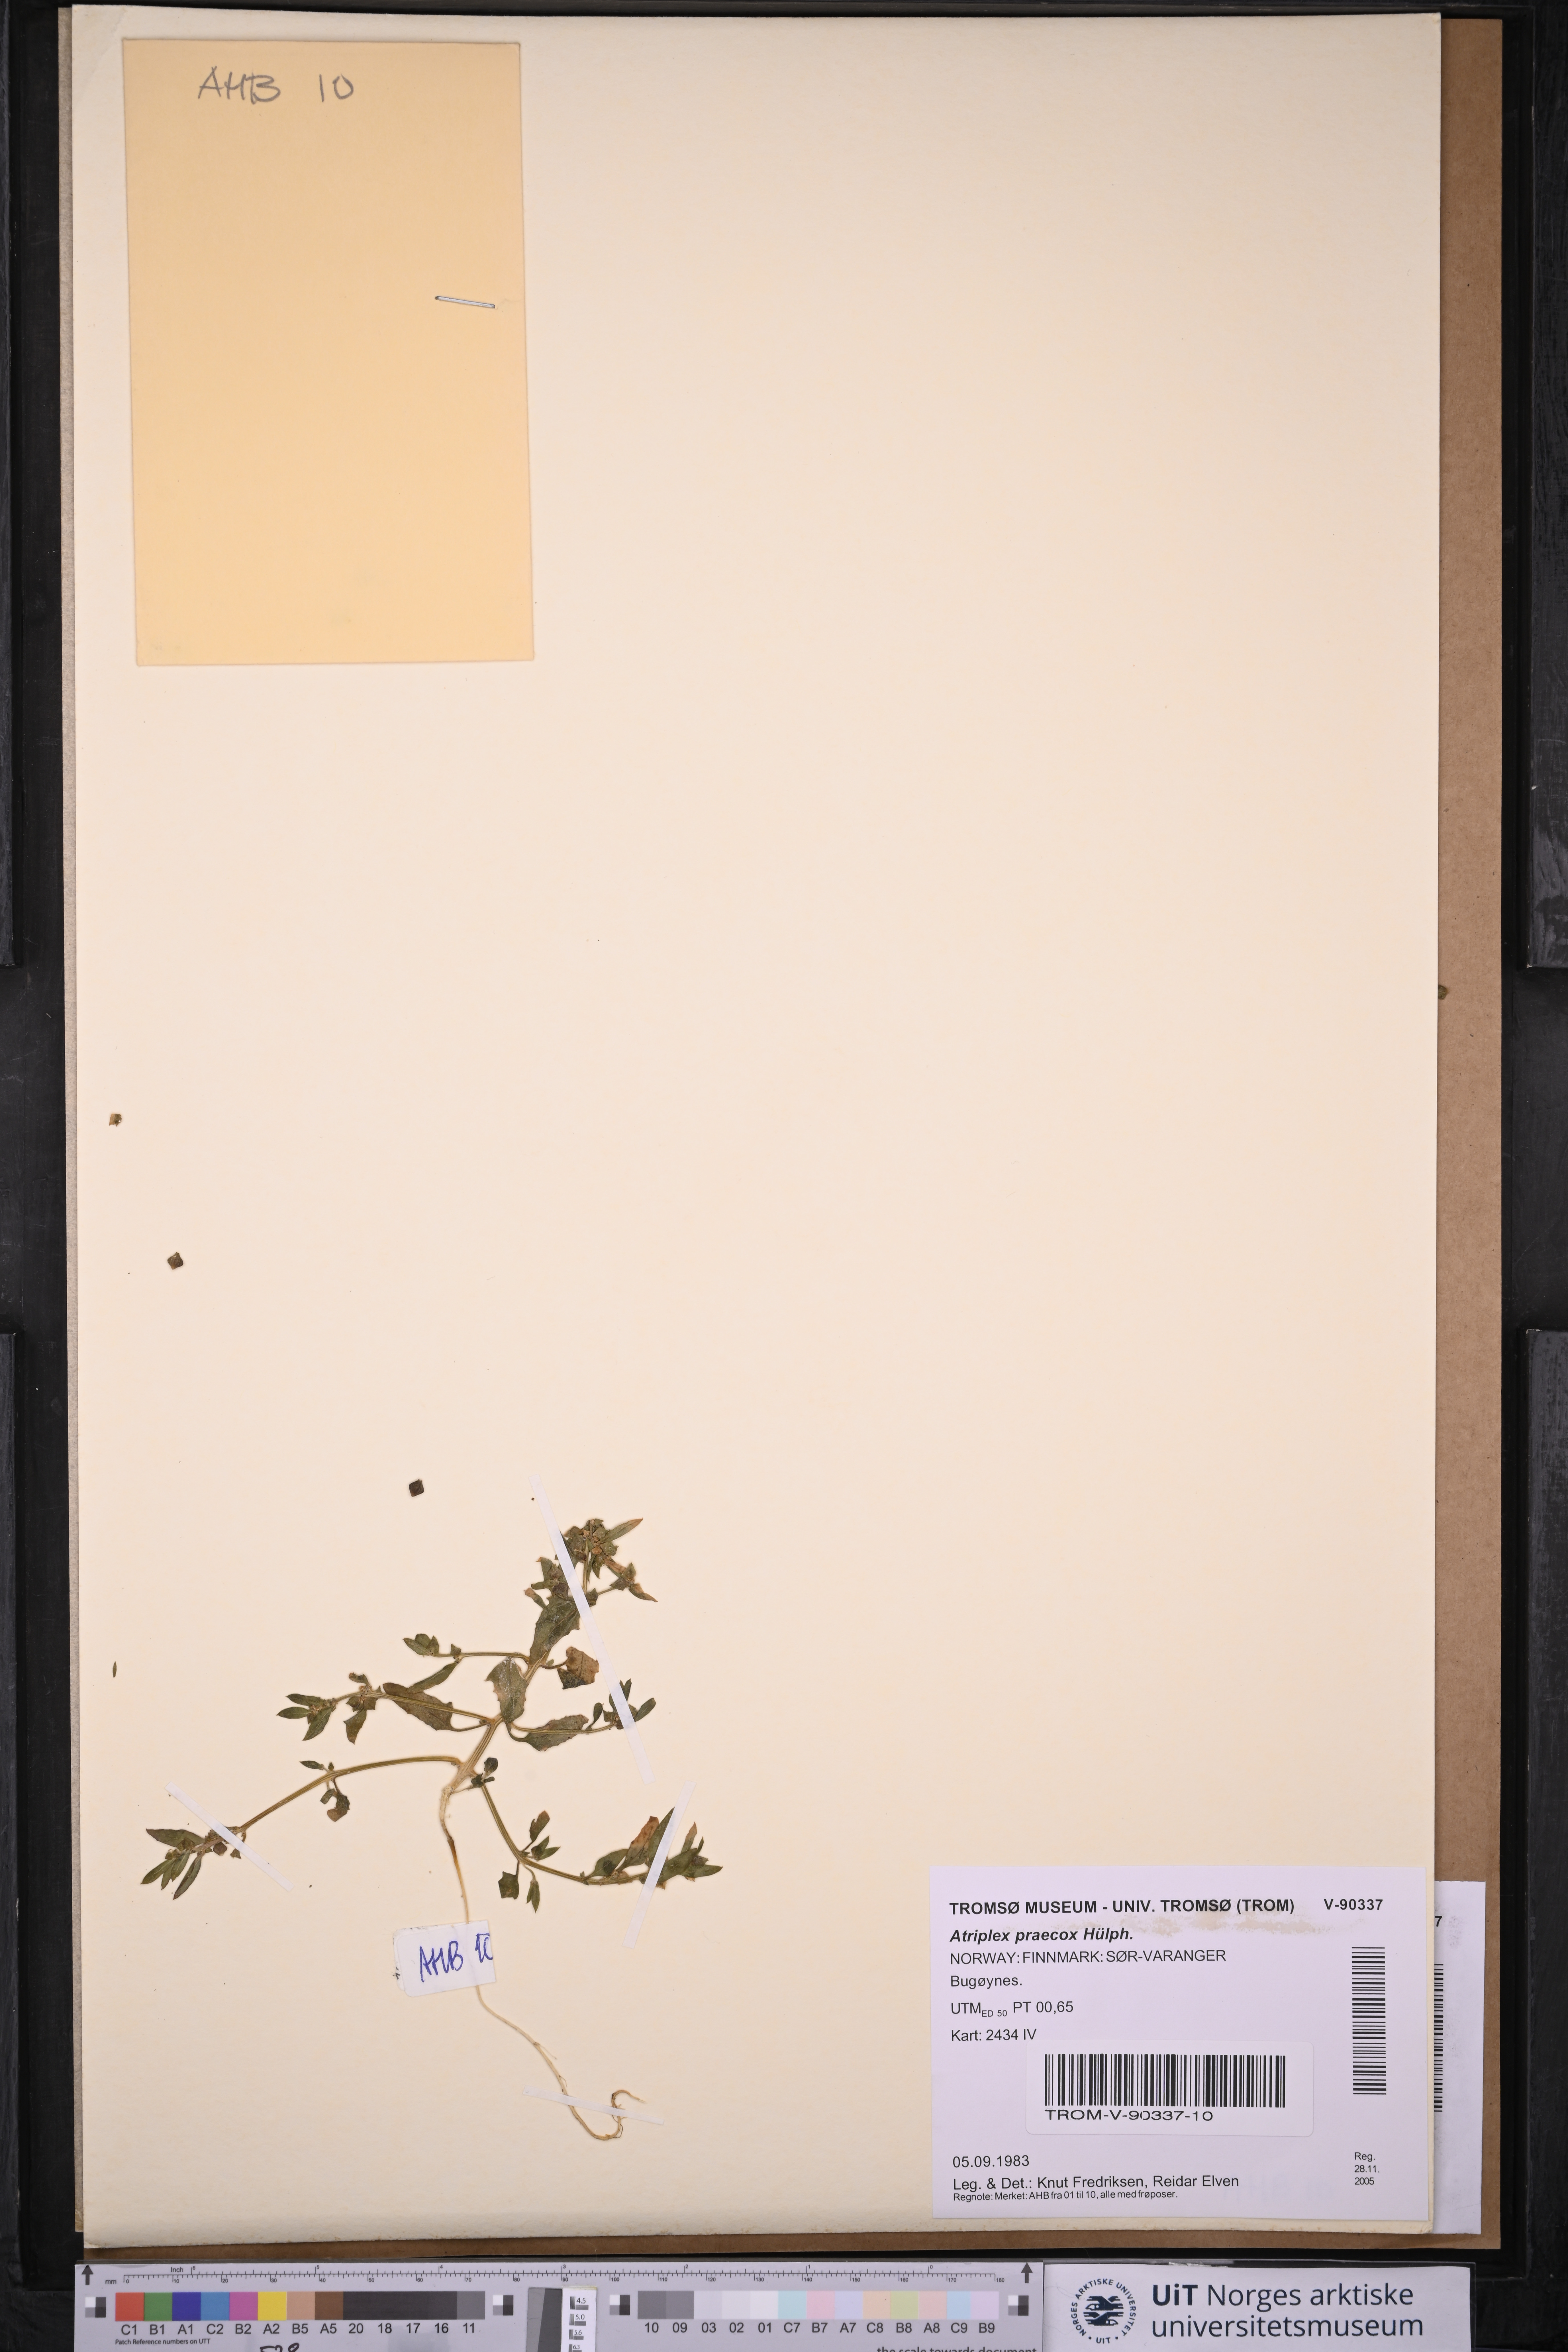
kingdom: Plantae
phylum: Tracheophyta
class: Magnoliopsida
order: Caryophyllales
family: Amaranthaceae
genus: Atriplex
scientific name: Atriplex praecox
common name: Early orache
